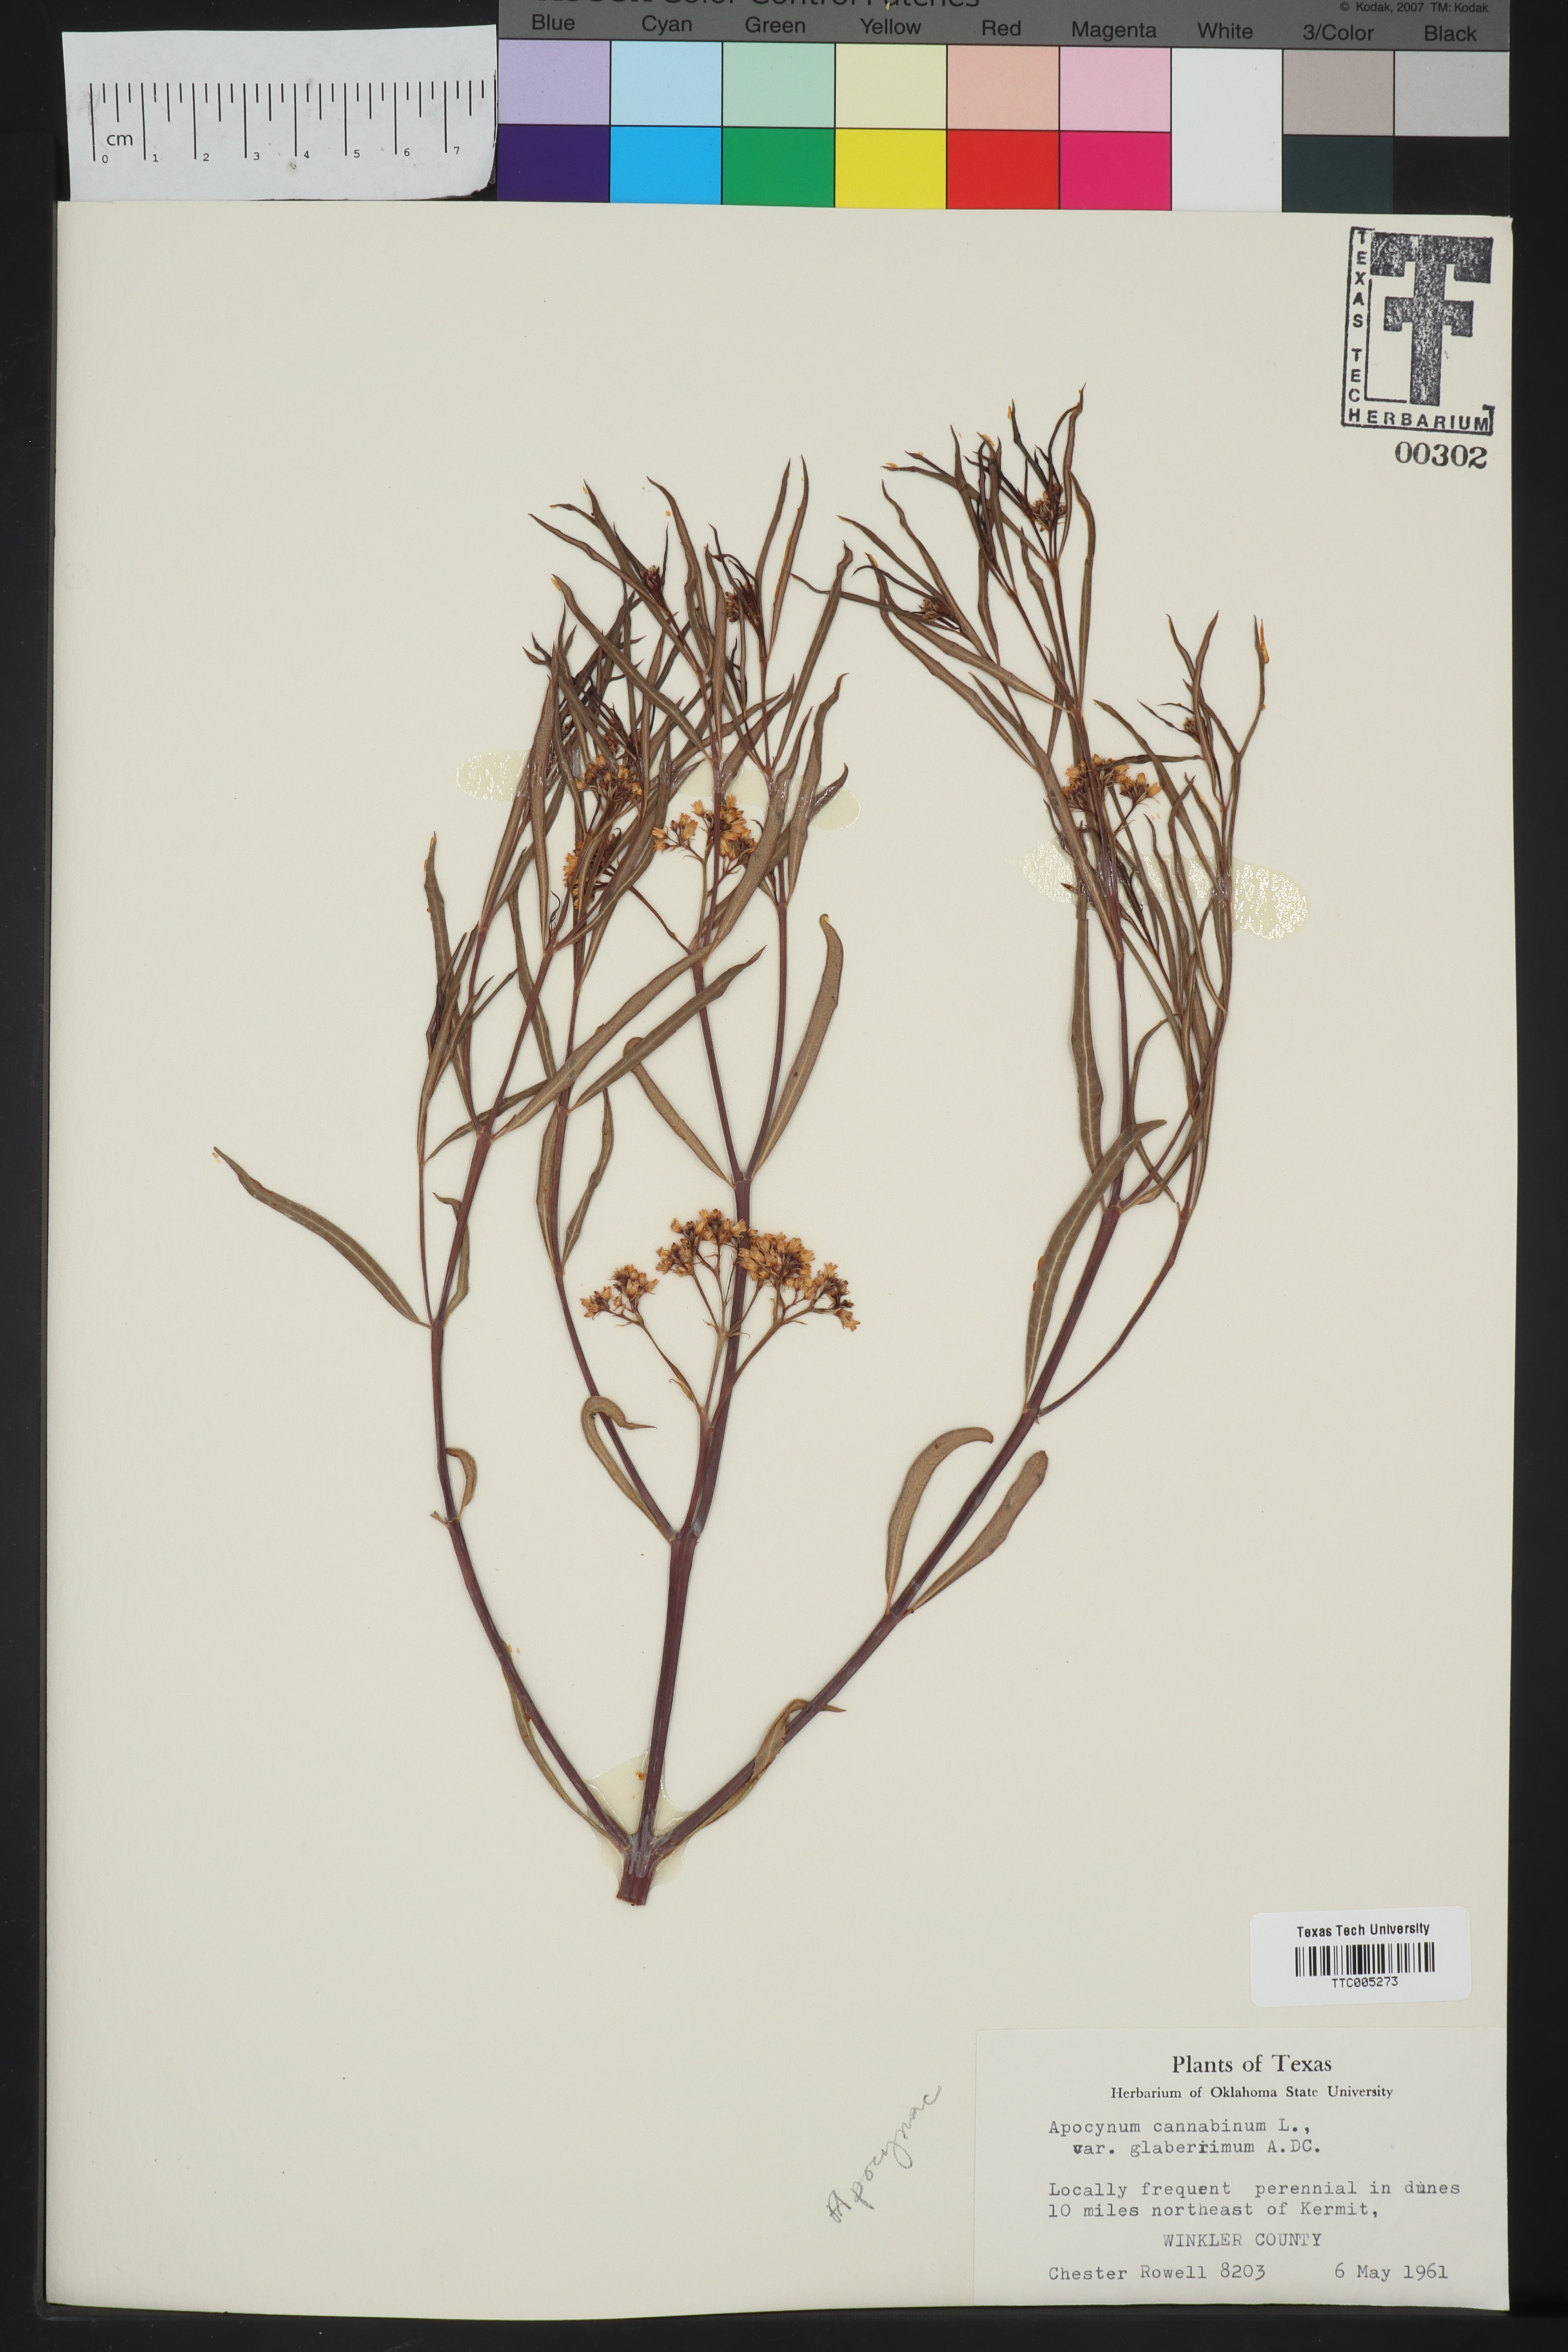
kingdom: Plantae
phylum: Tracheophyta
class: Magnoliopsida
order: Gentianales
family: Apocynaceae
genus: Apocynum
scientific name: Apocynum cannabinum
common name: Hemp dogbane
